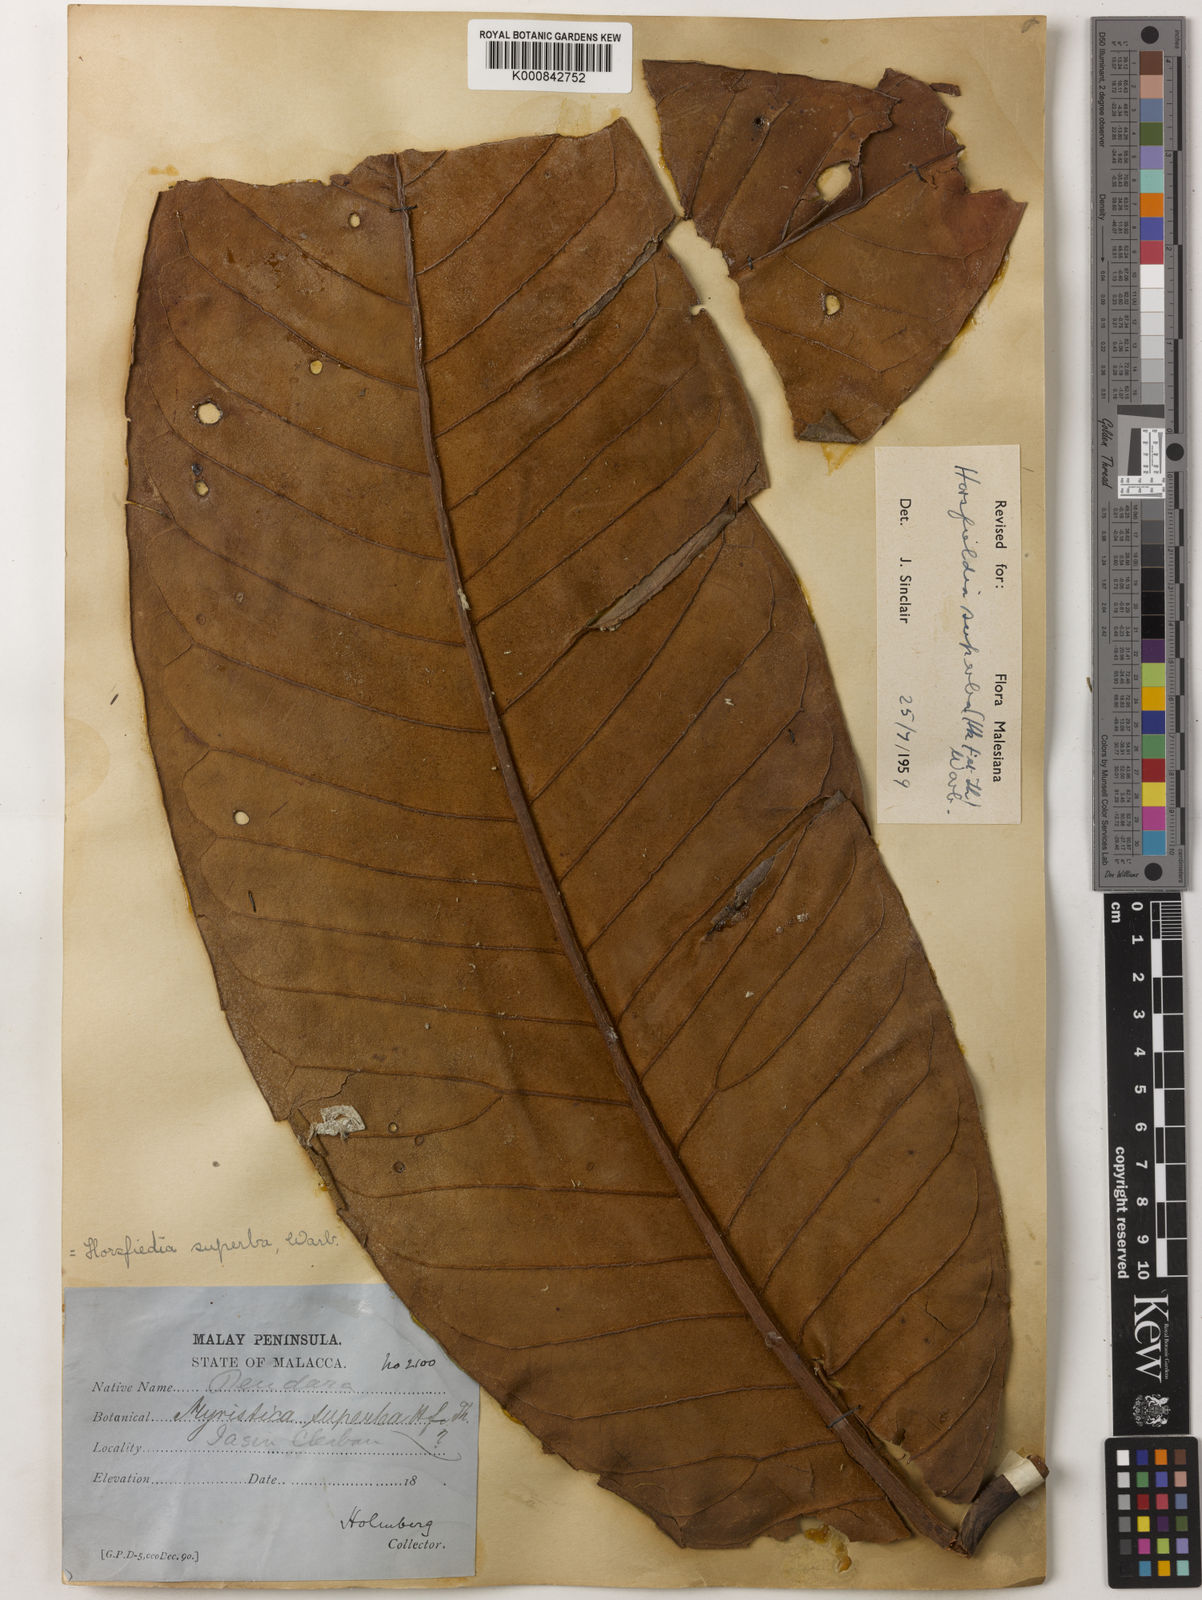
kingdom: Plantae
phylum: Tracheophyta
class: Magnoliopsida
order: Magnoliales
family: Myristicaceae
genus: Horsfieldia
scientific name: Horsfieldia superba
